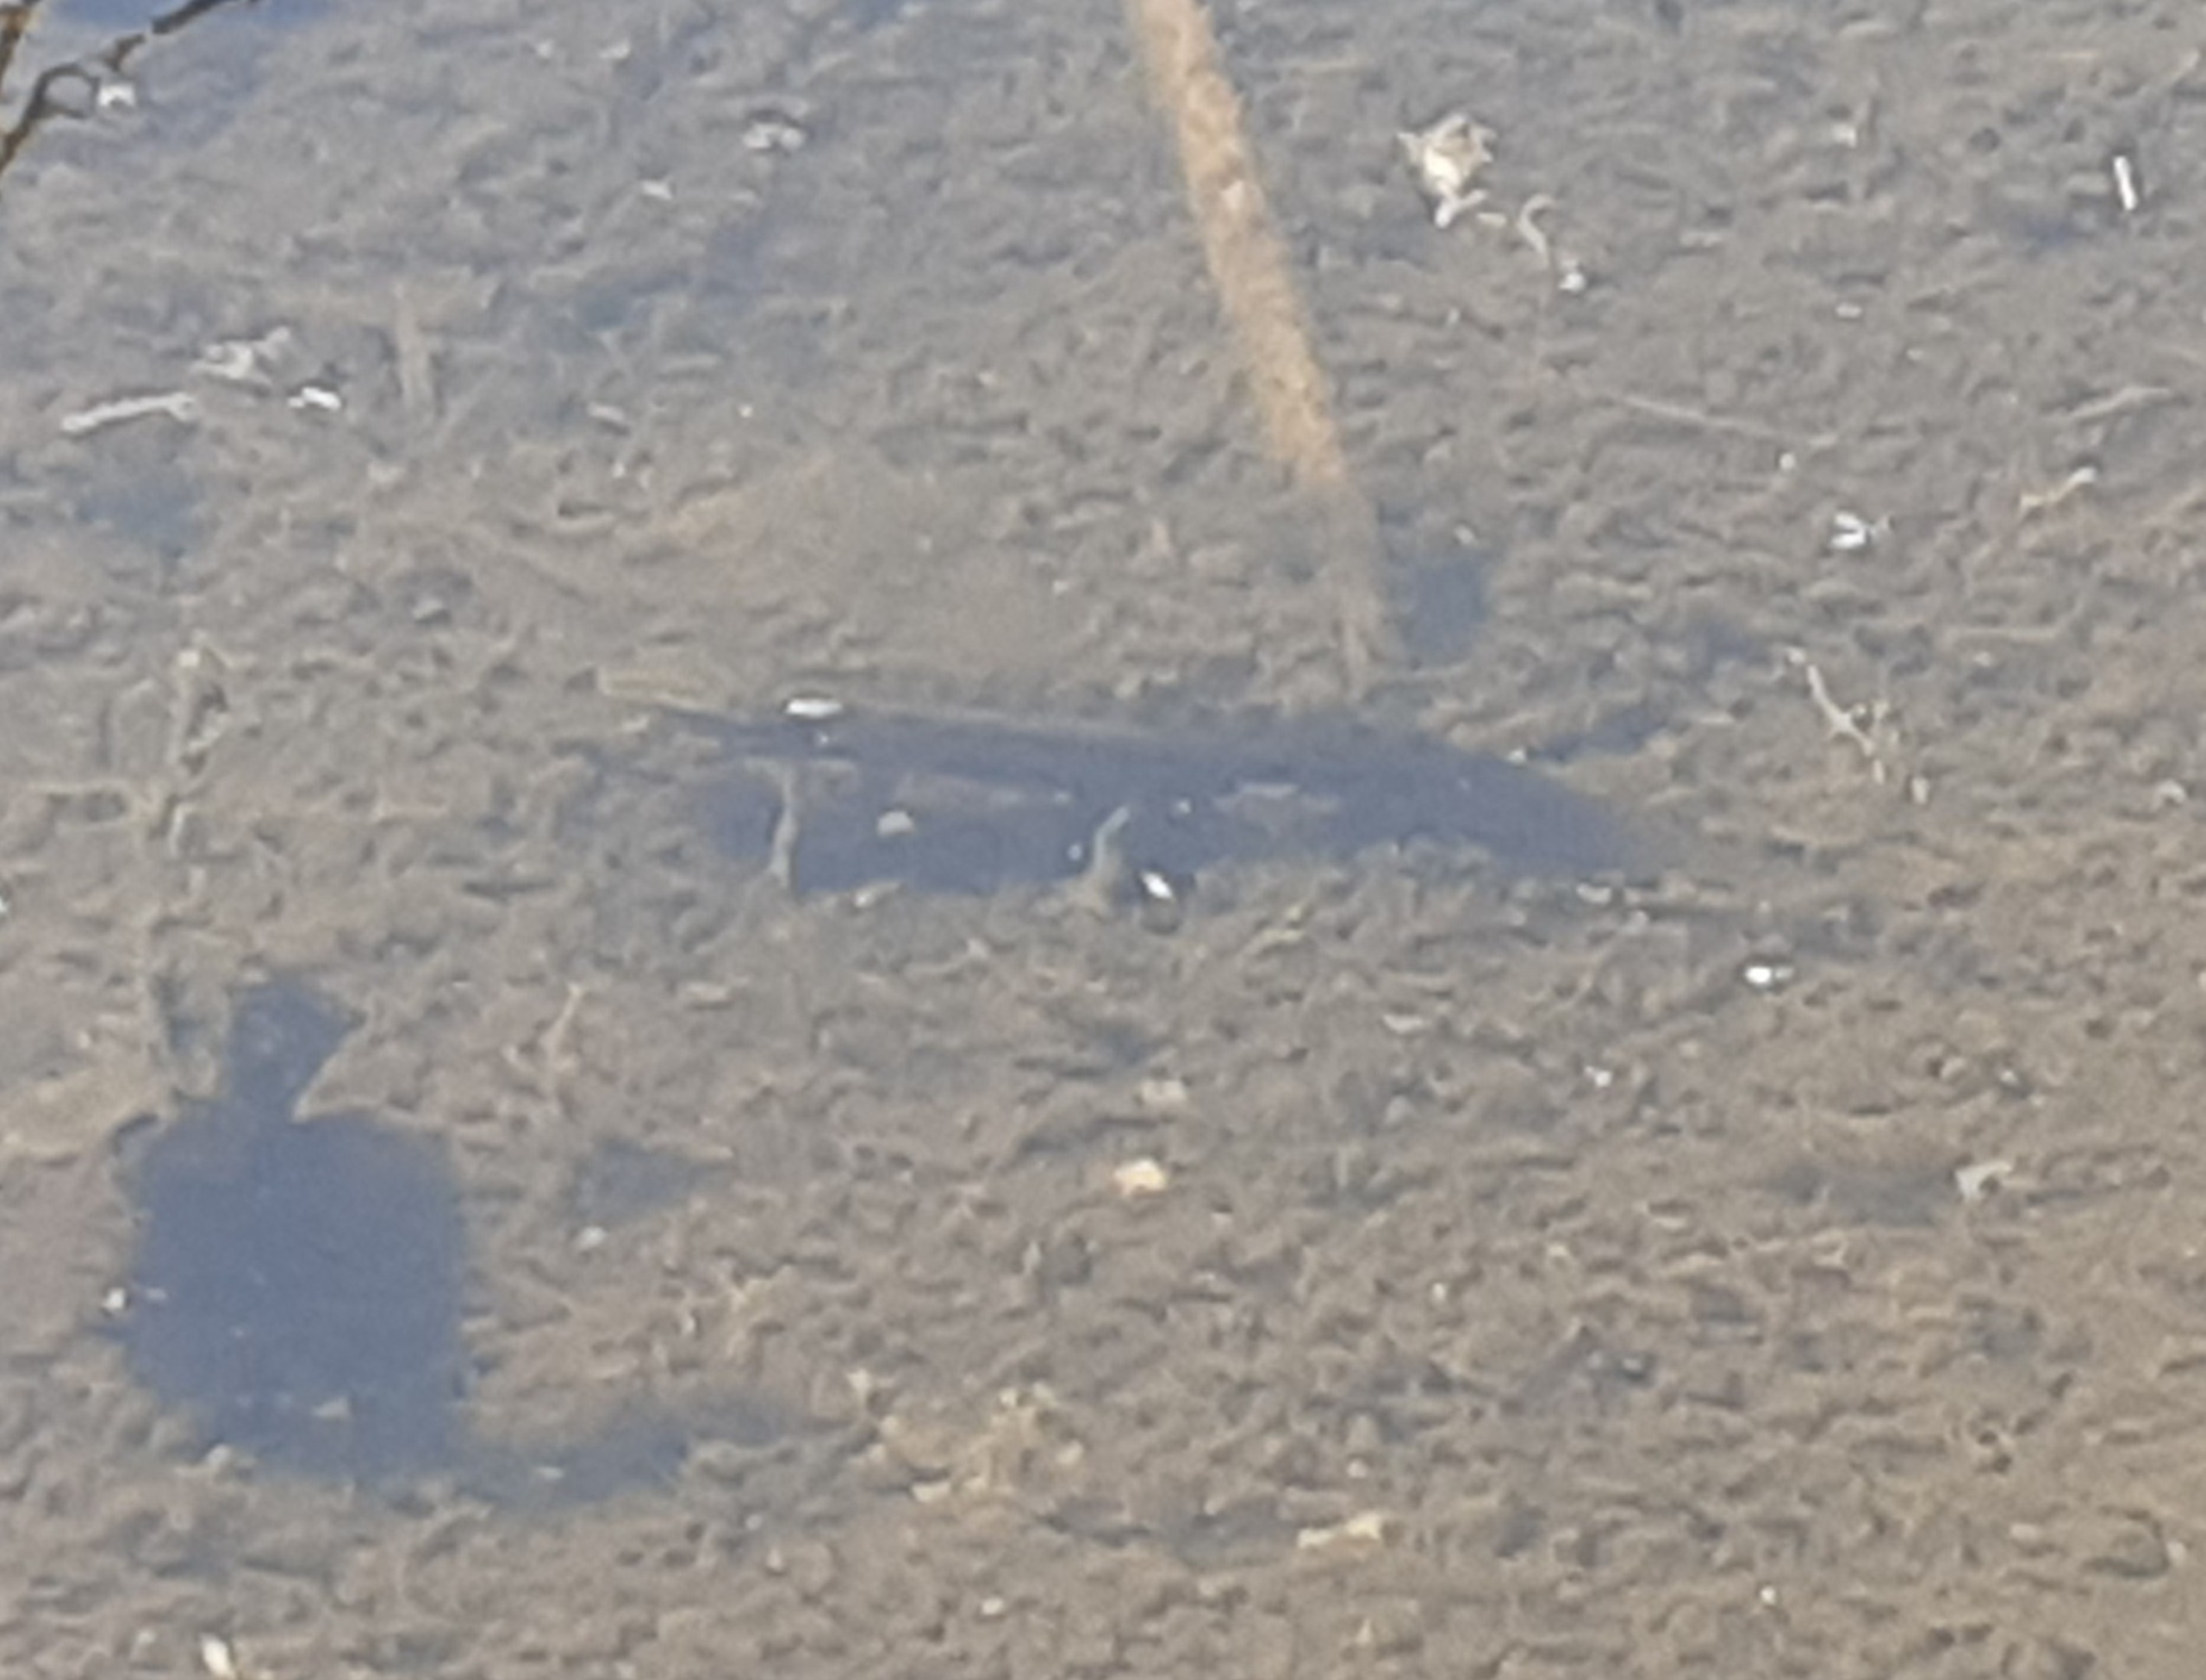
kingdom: Animalia
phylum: Chordata
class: Amphibia
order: Caudata
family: Salamandridae
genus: Lissotriton
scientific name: Lissotriton vulgaris
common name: Lille vandsalamander
